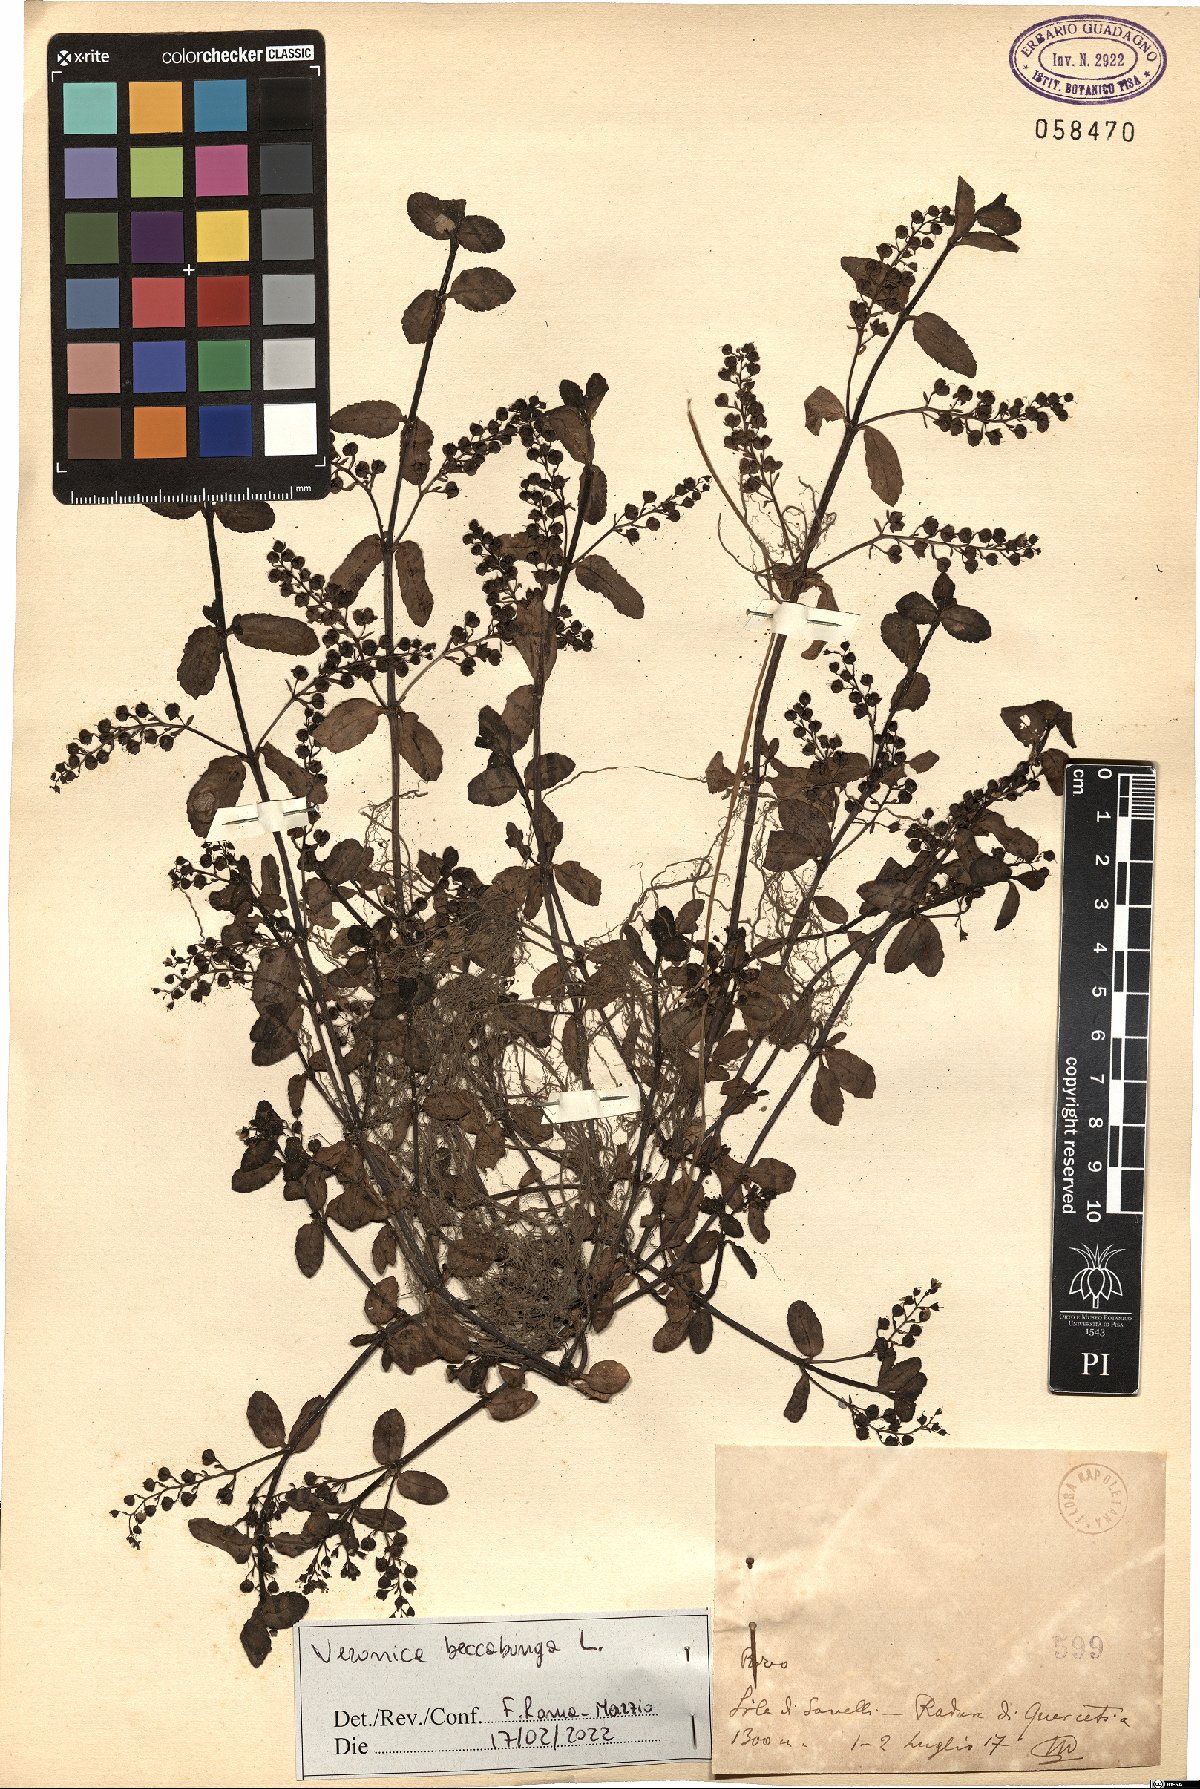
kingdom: Plantae
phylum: Tracheophyta
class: Magnoliopsida
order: Lamiales
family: Plantaginaceae
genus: Veronica
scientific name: Veronica beccabunga
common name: Brooklime
